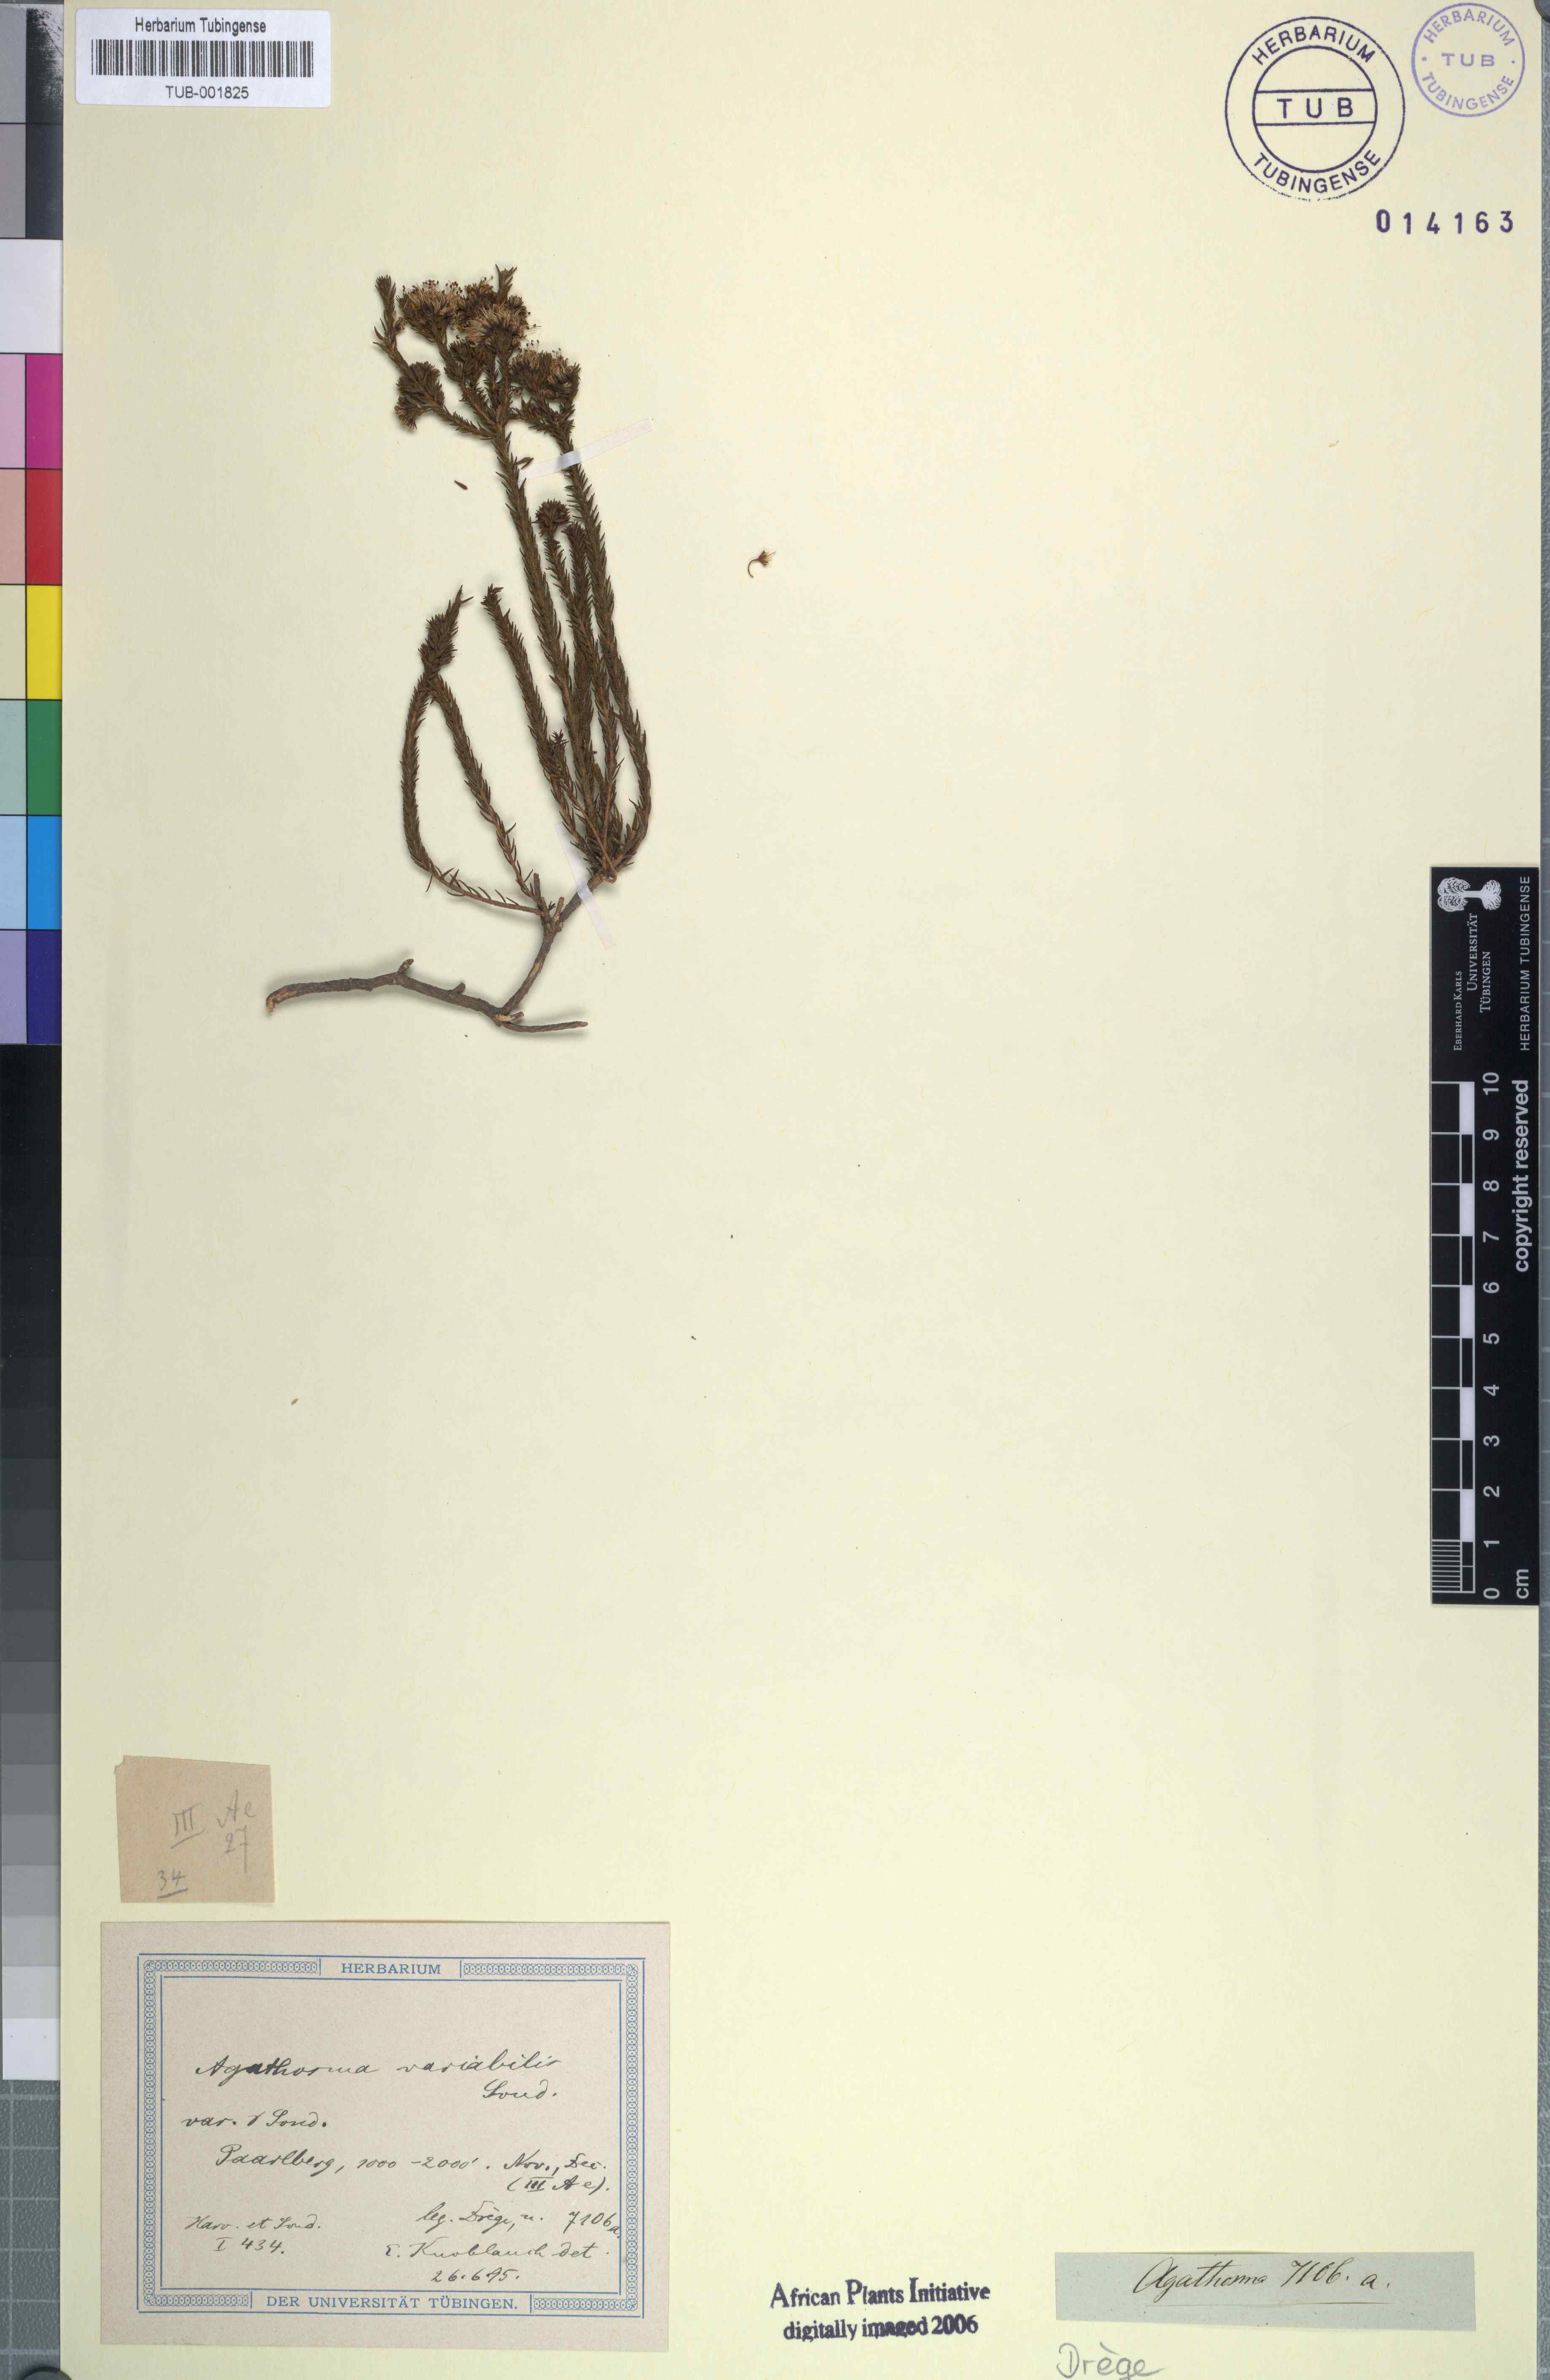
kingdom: Plantae
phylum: Tracheophyta
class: Magnoliopsida
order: Sapindales
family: Rutaceae
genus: Agathosma
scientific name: Agathosma capensis
